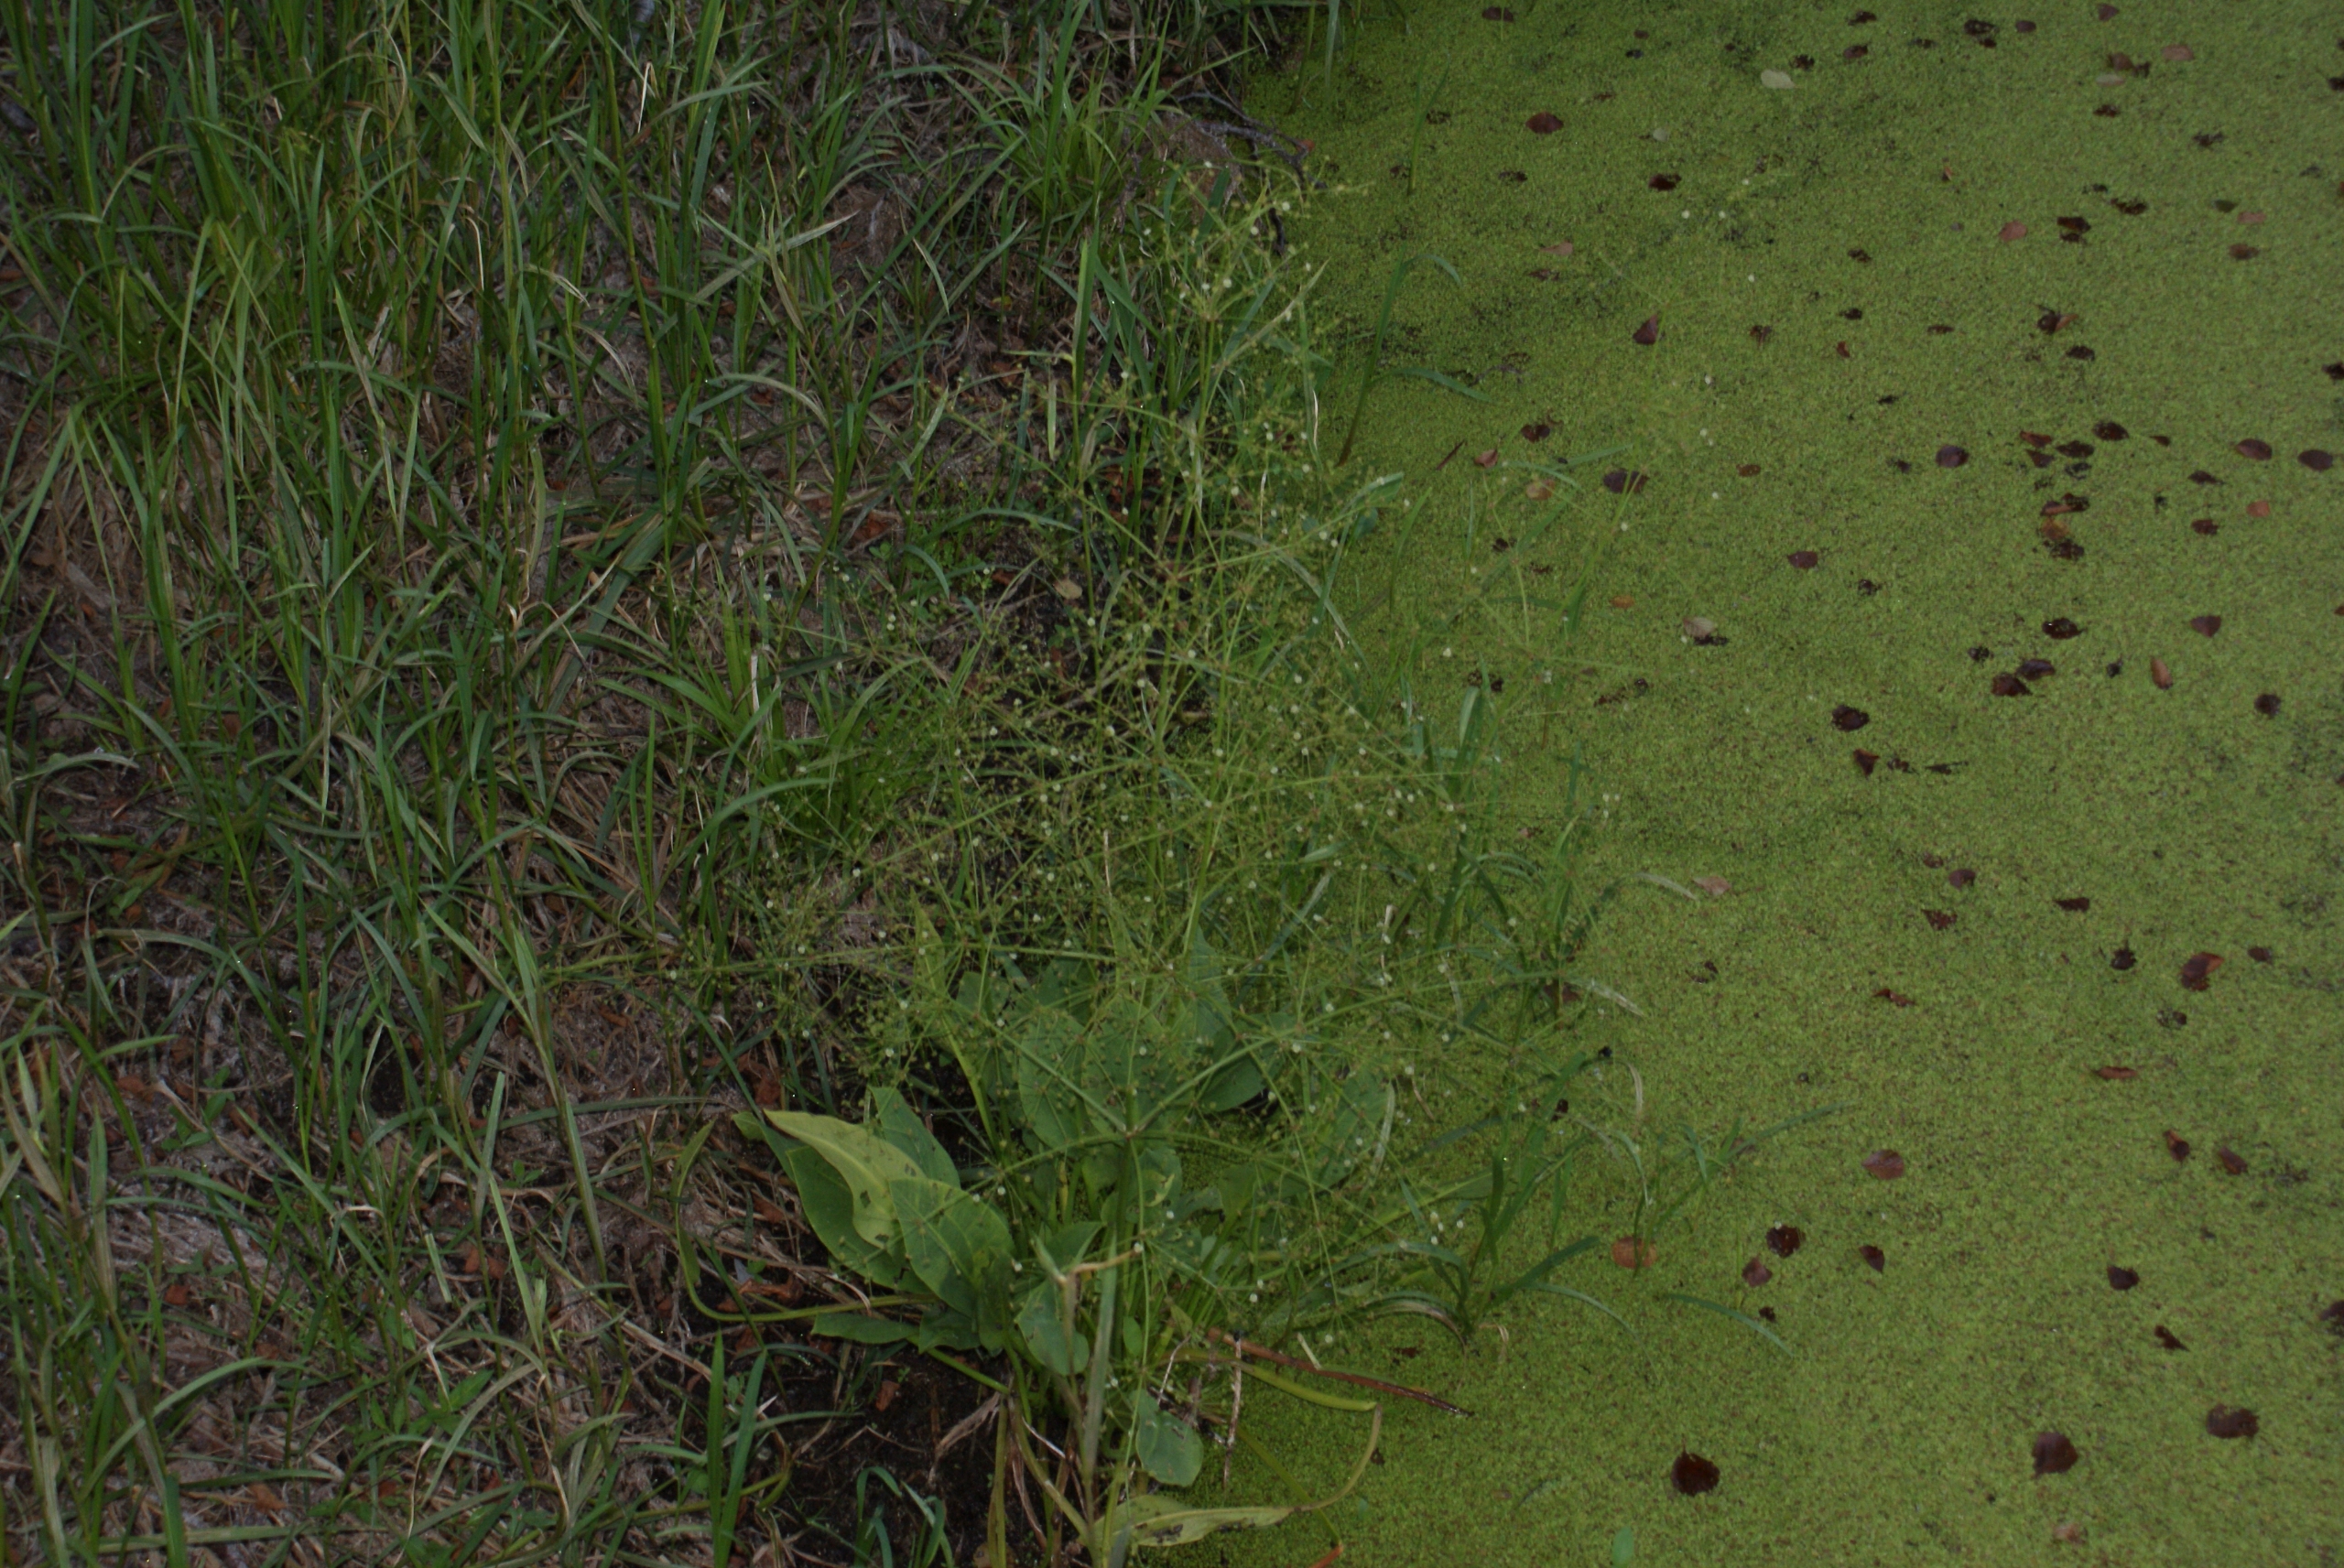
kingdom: Plantae
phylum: Tracheophyta
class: Liliopsida
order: Alismatales
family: Alismataceae
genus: Alisma
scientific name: Alisma plantago-aquatica
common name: Vejbred-skeblad
